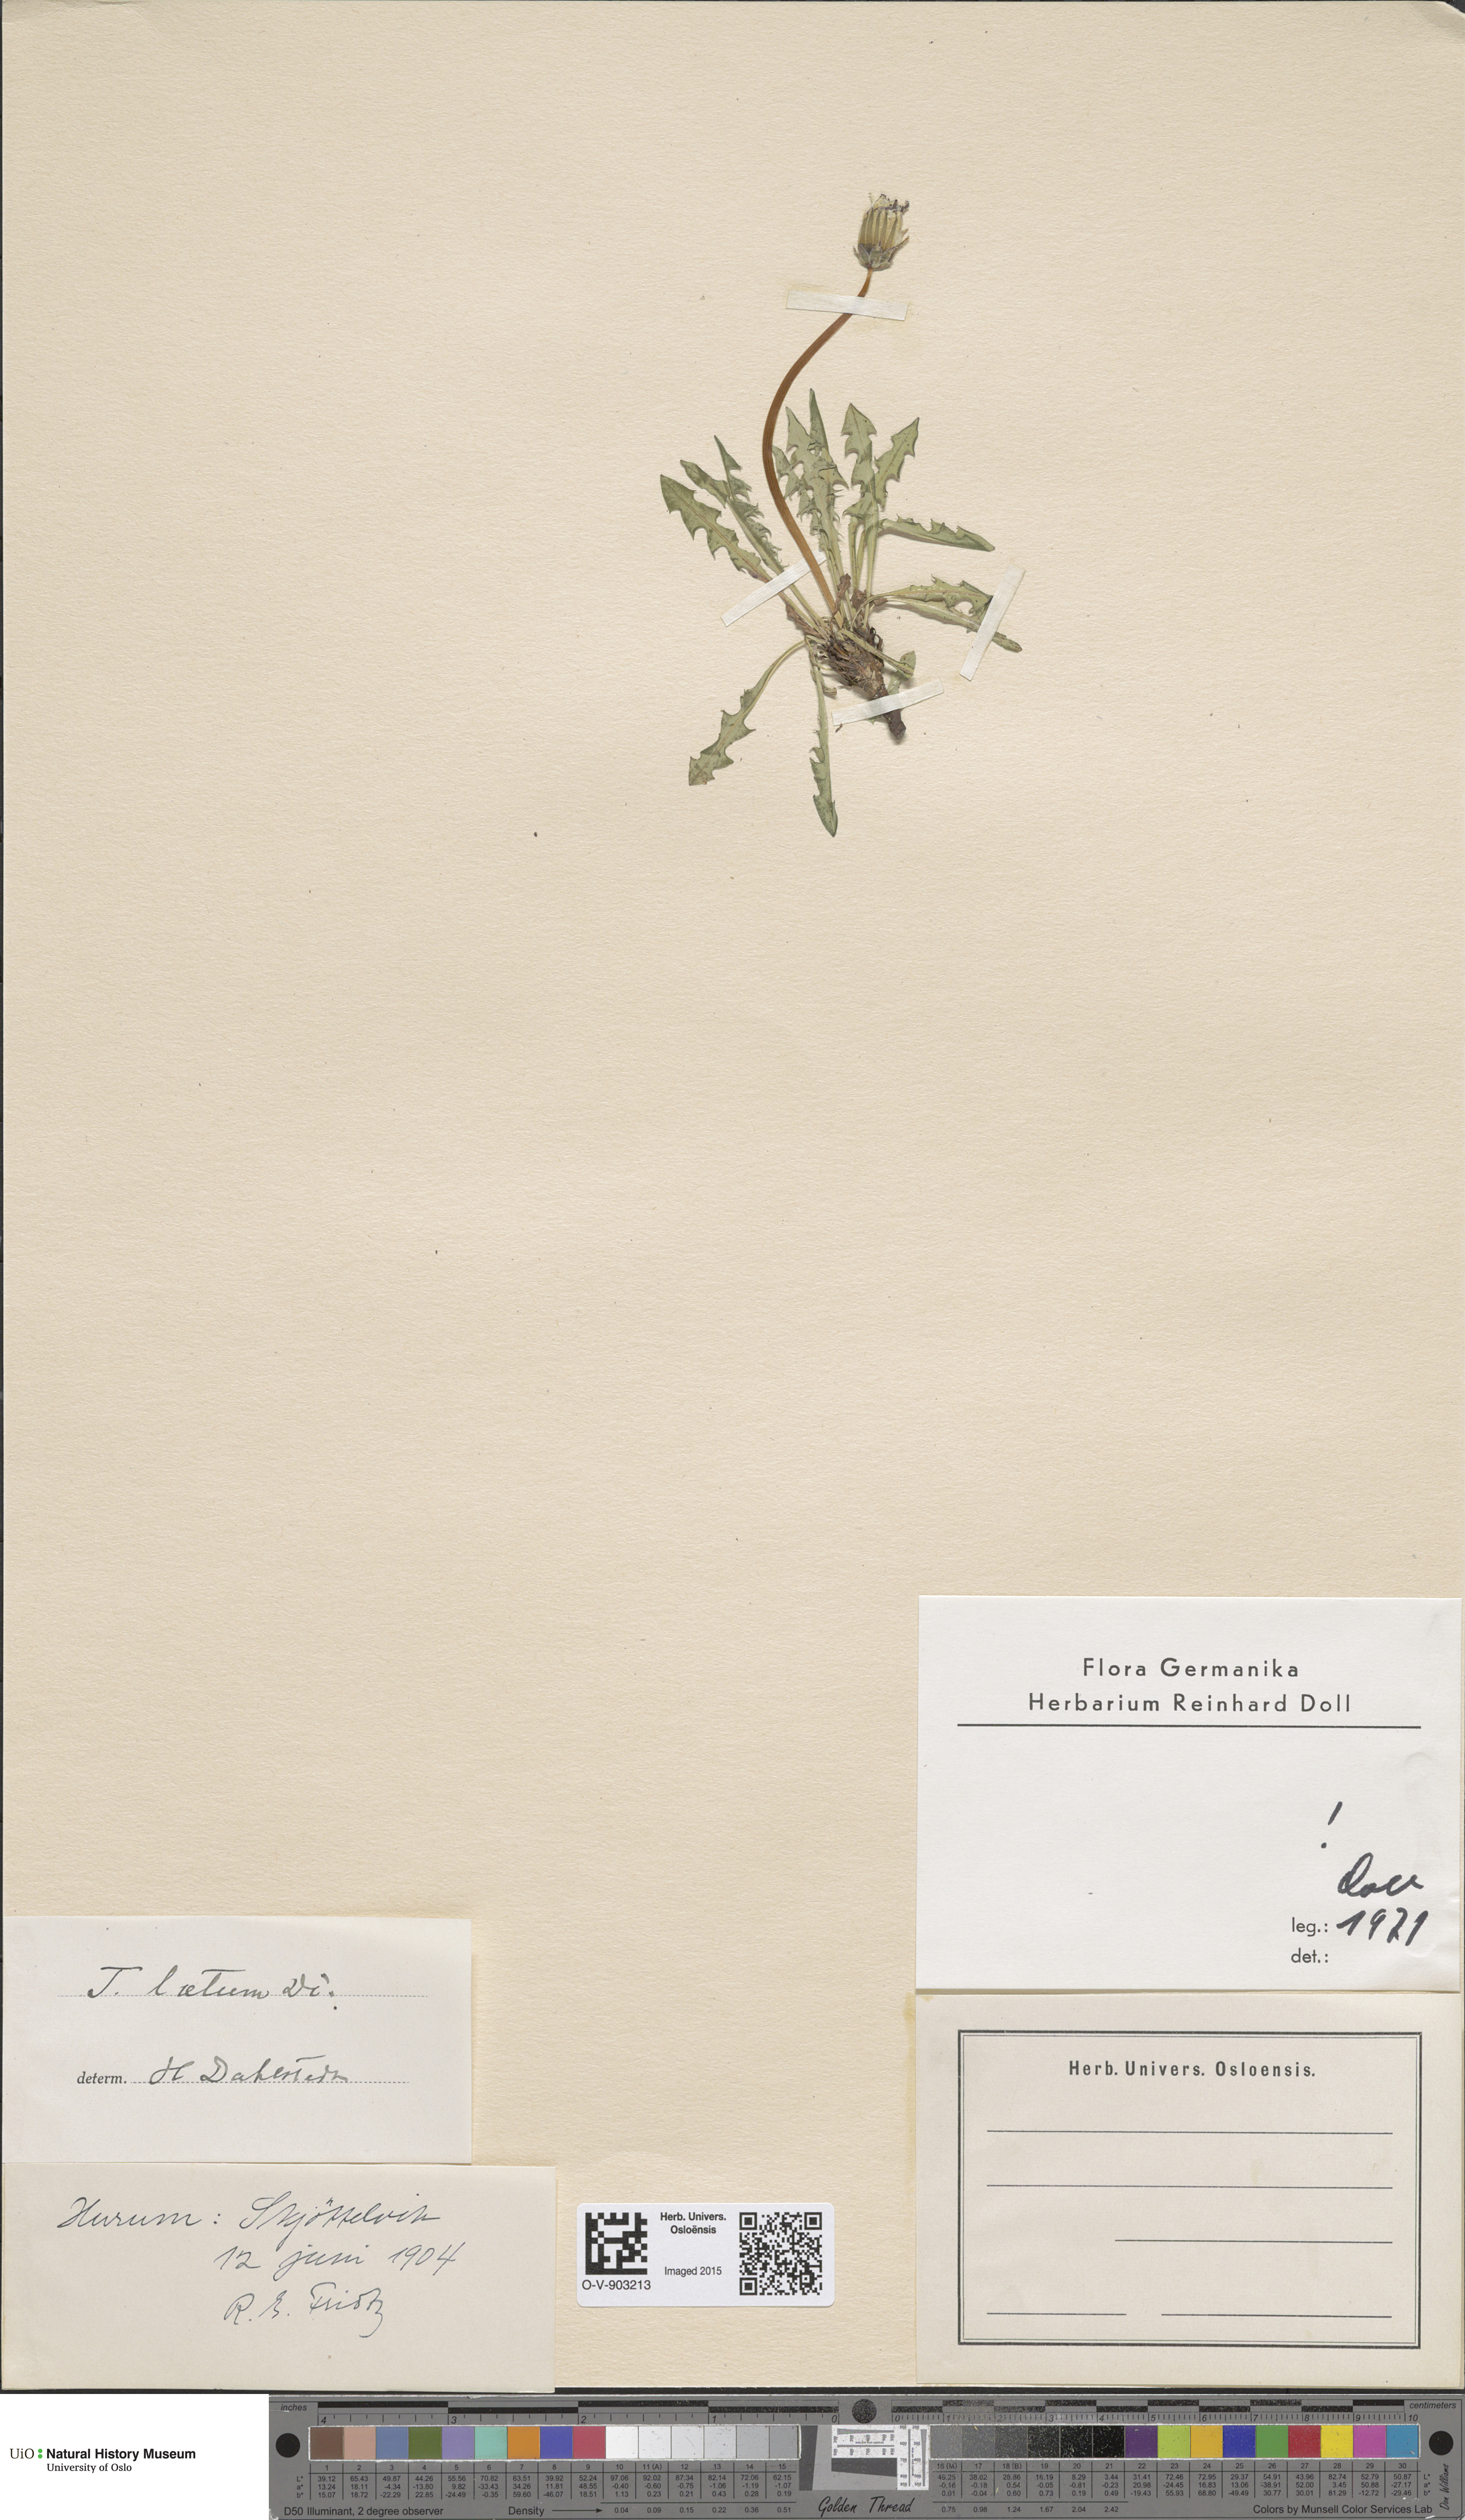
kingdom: Plantae
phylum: Tracheophyta
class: Magnoliopsida
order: Asterales
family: Asteraceae
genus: Taraxacum
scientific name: Taraxacum laetum
